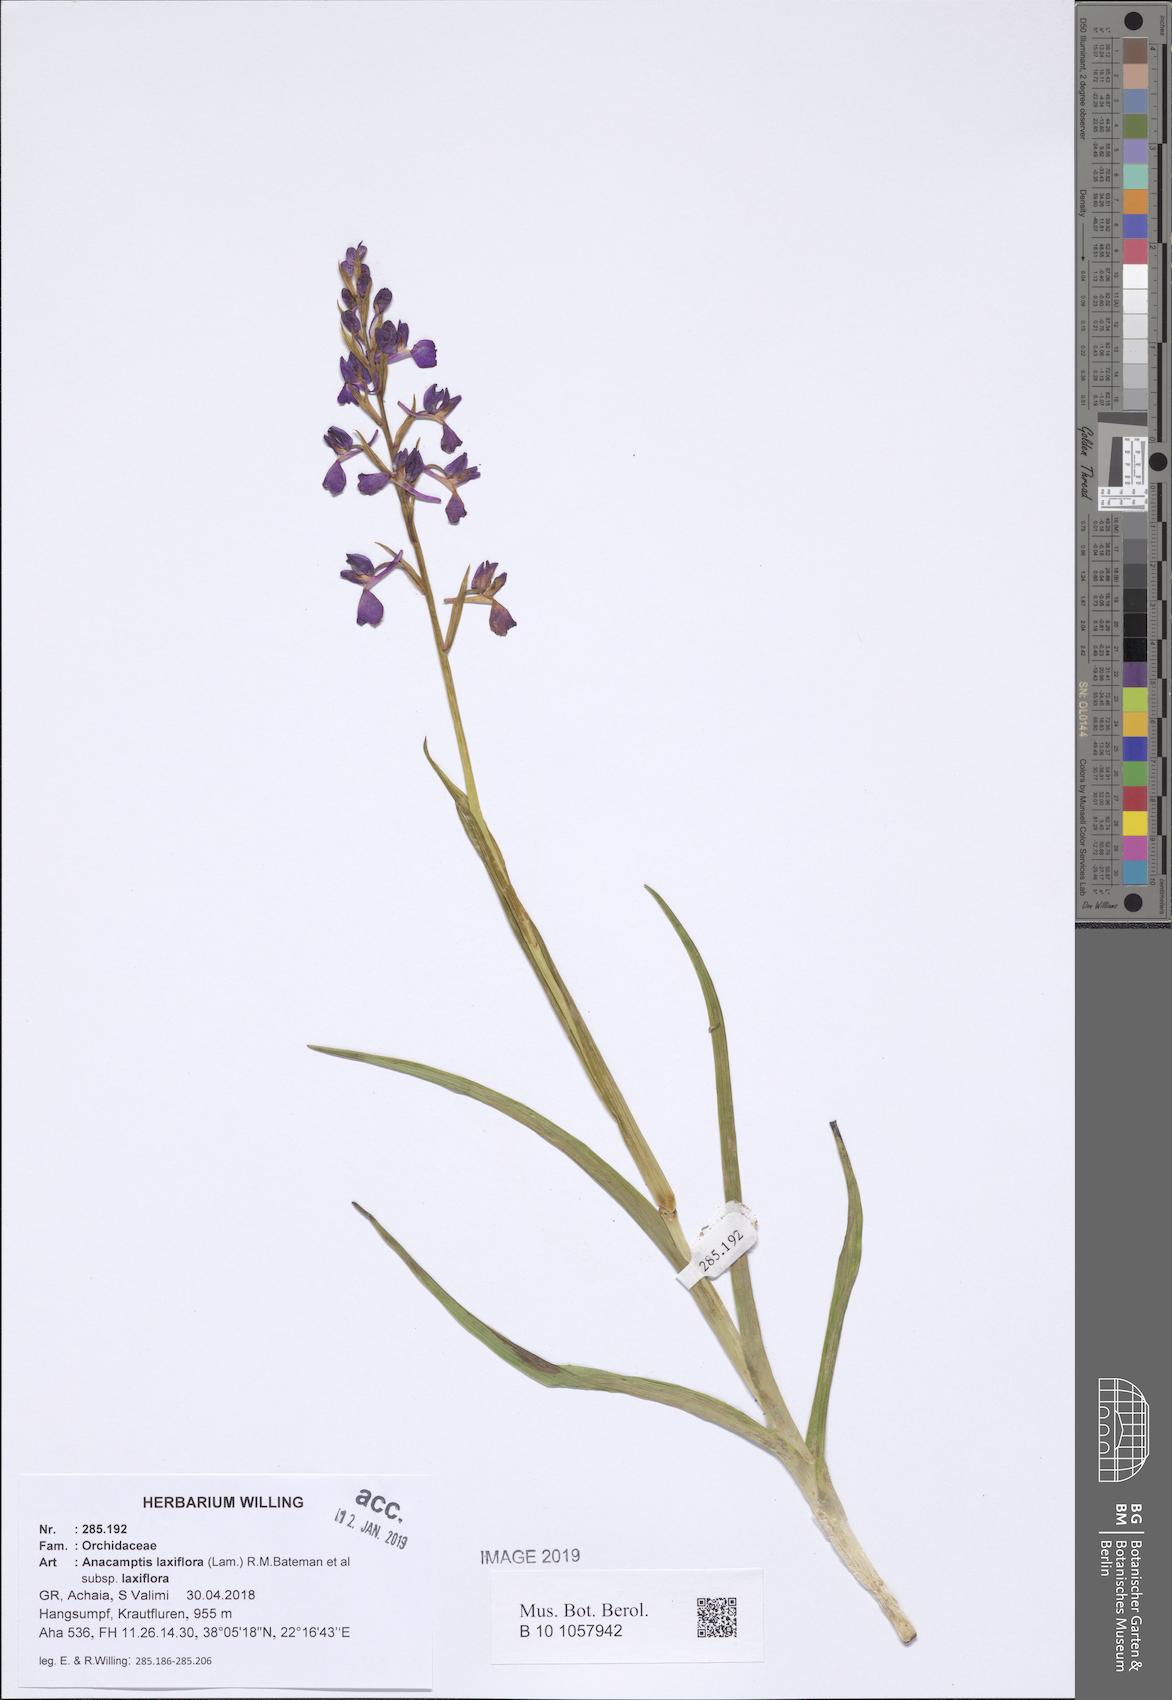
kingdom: Plantae
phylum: Tracheophyta
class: Liliopsida
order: Asparagales
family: Orchidaceae
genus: Anacamptis
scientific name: Anacamptis laxiflora
